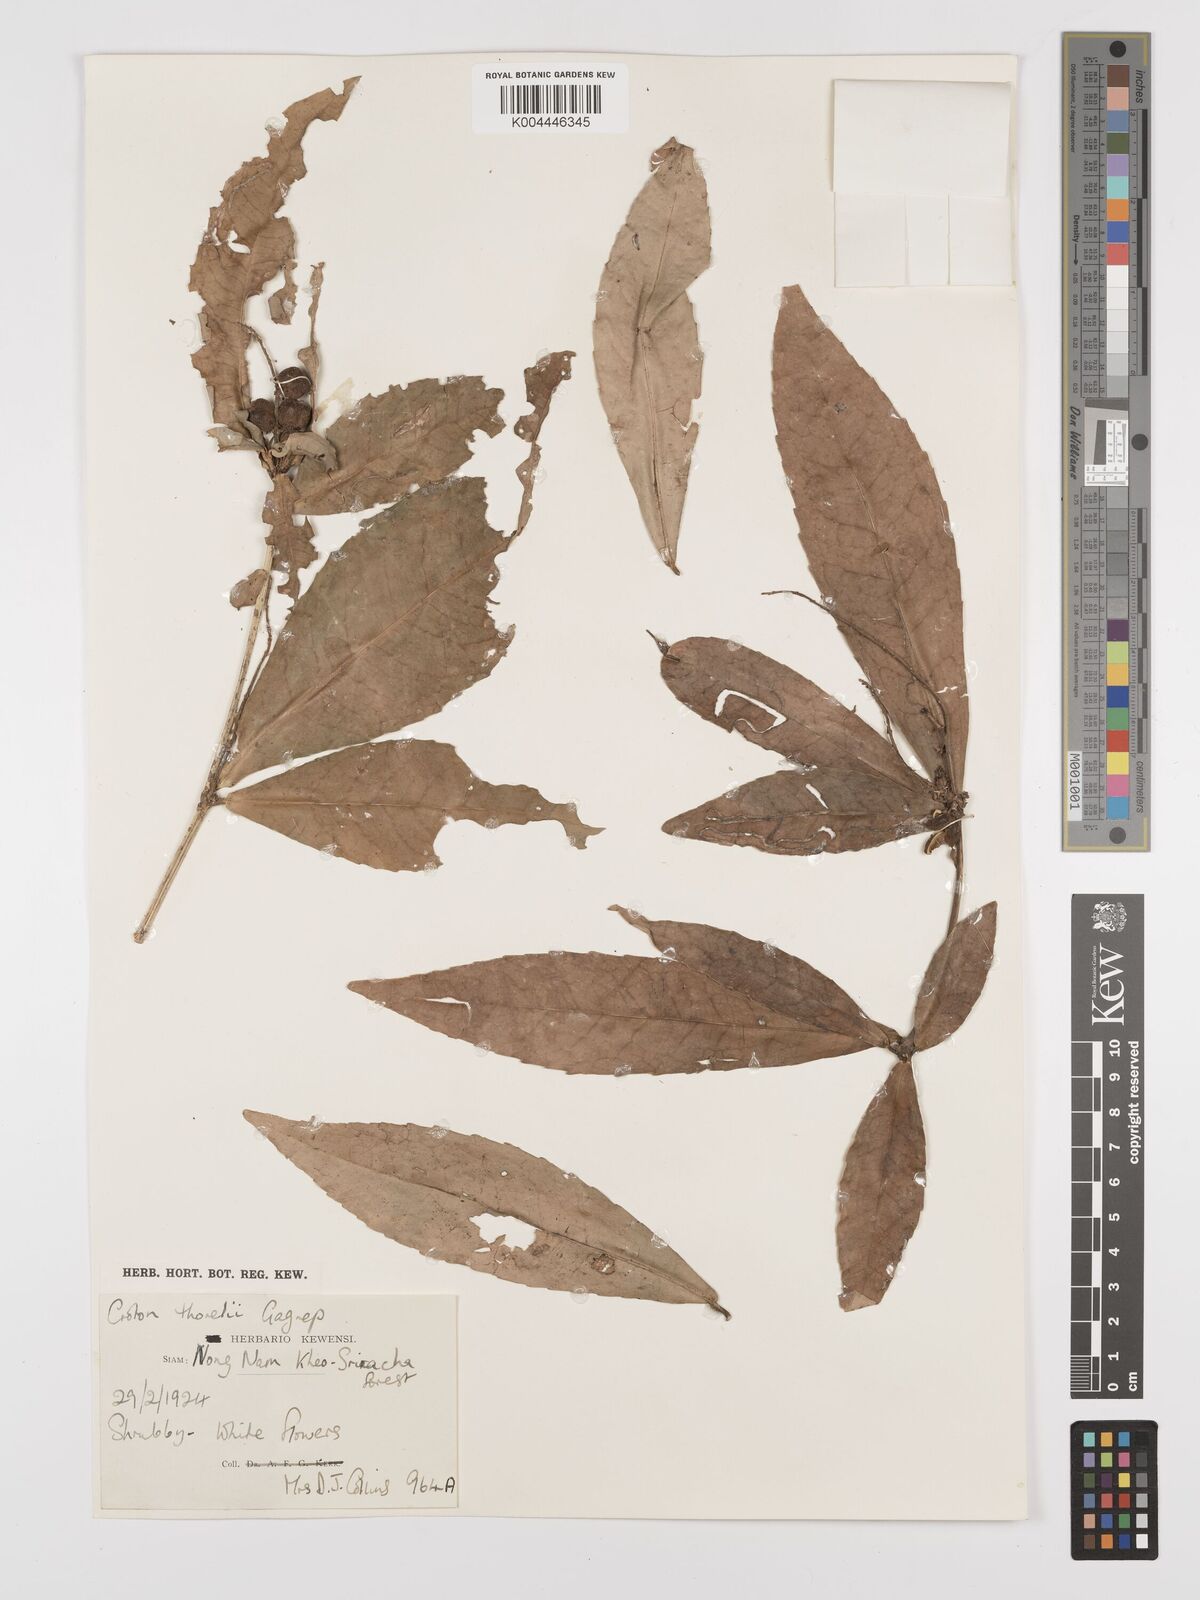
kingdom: Plantae
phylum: Tracheophyta
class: Magnoliopsida
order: Malpighiales
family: Euphorbiaceae
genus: Croton
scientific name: Croton thorelii
